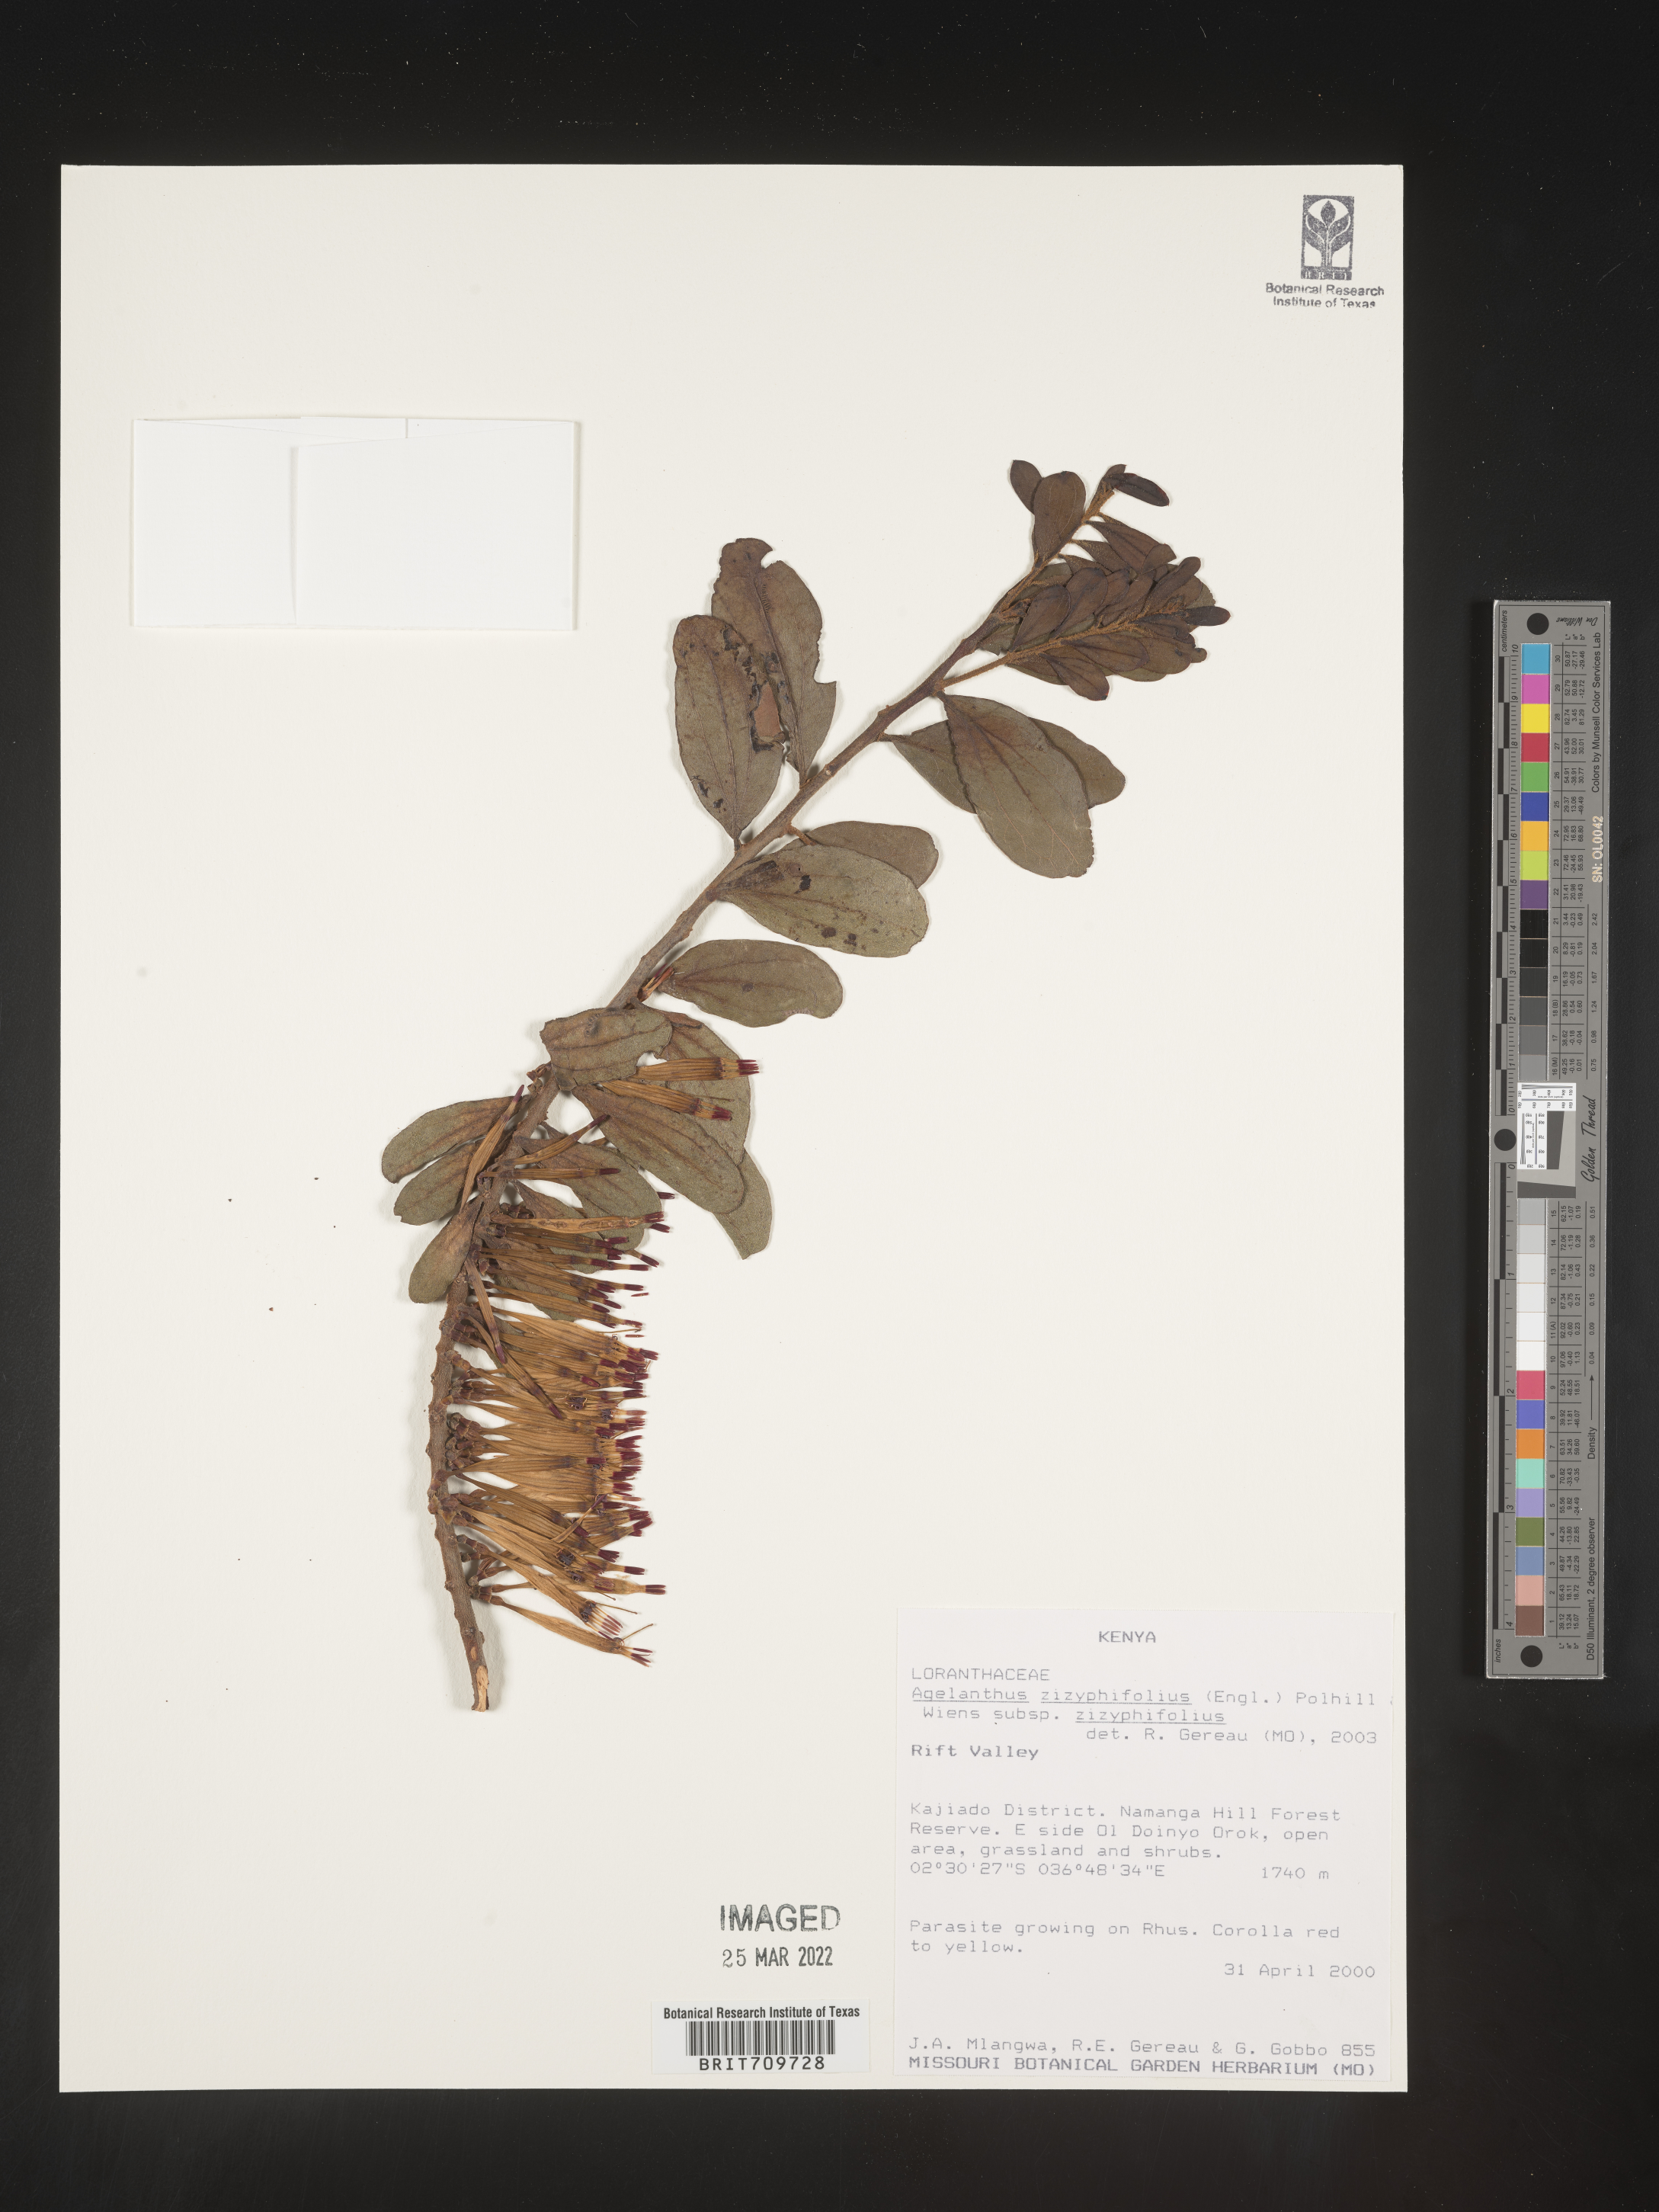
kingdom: Plantae
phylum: Tracheophyta
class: Magnoliopsida
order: Santalales
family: Loranthaceae
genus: Agelanthus
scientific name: Agelanthus
